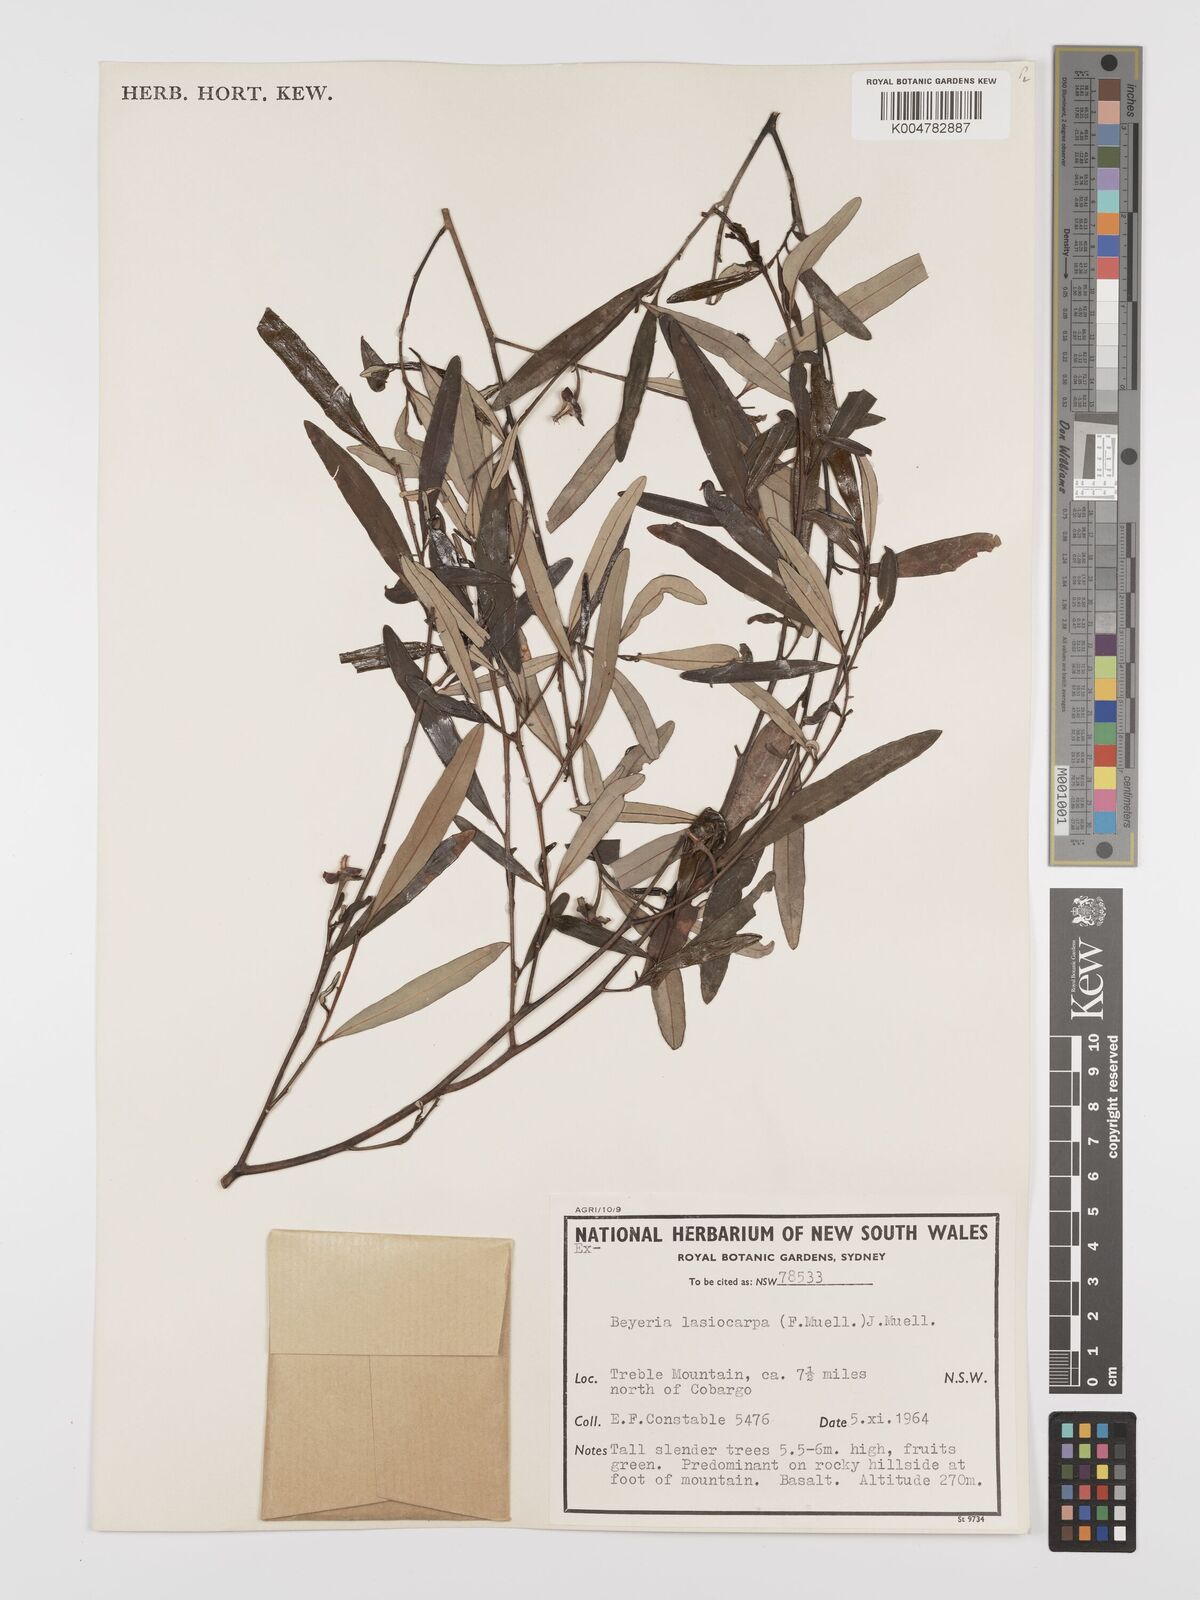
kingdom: Plantae
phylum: Tracheophyta
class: Magnoliopsida
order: Malpighiales
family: Euphorbiaceae
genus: Beyeria
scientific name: Beyeria lasiocarpa
